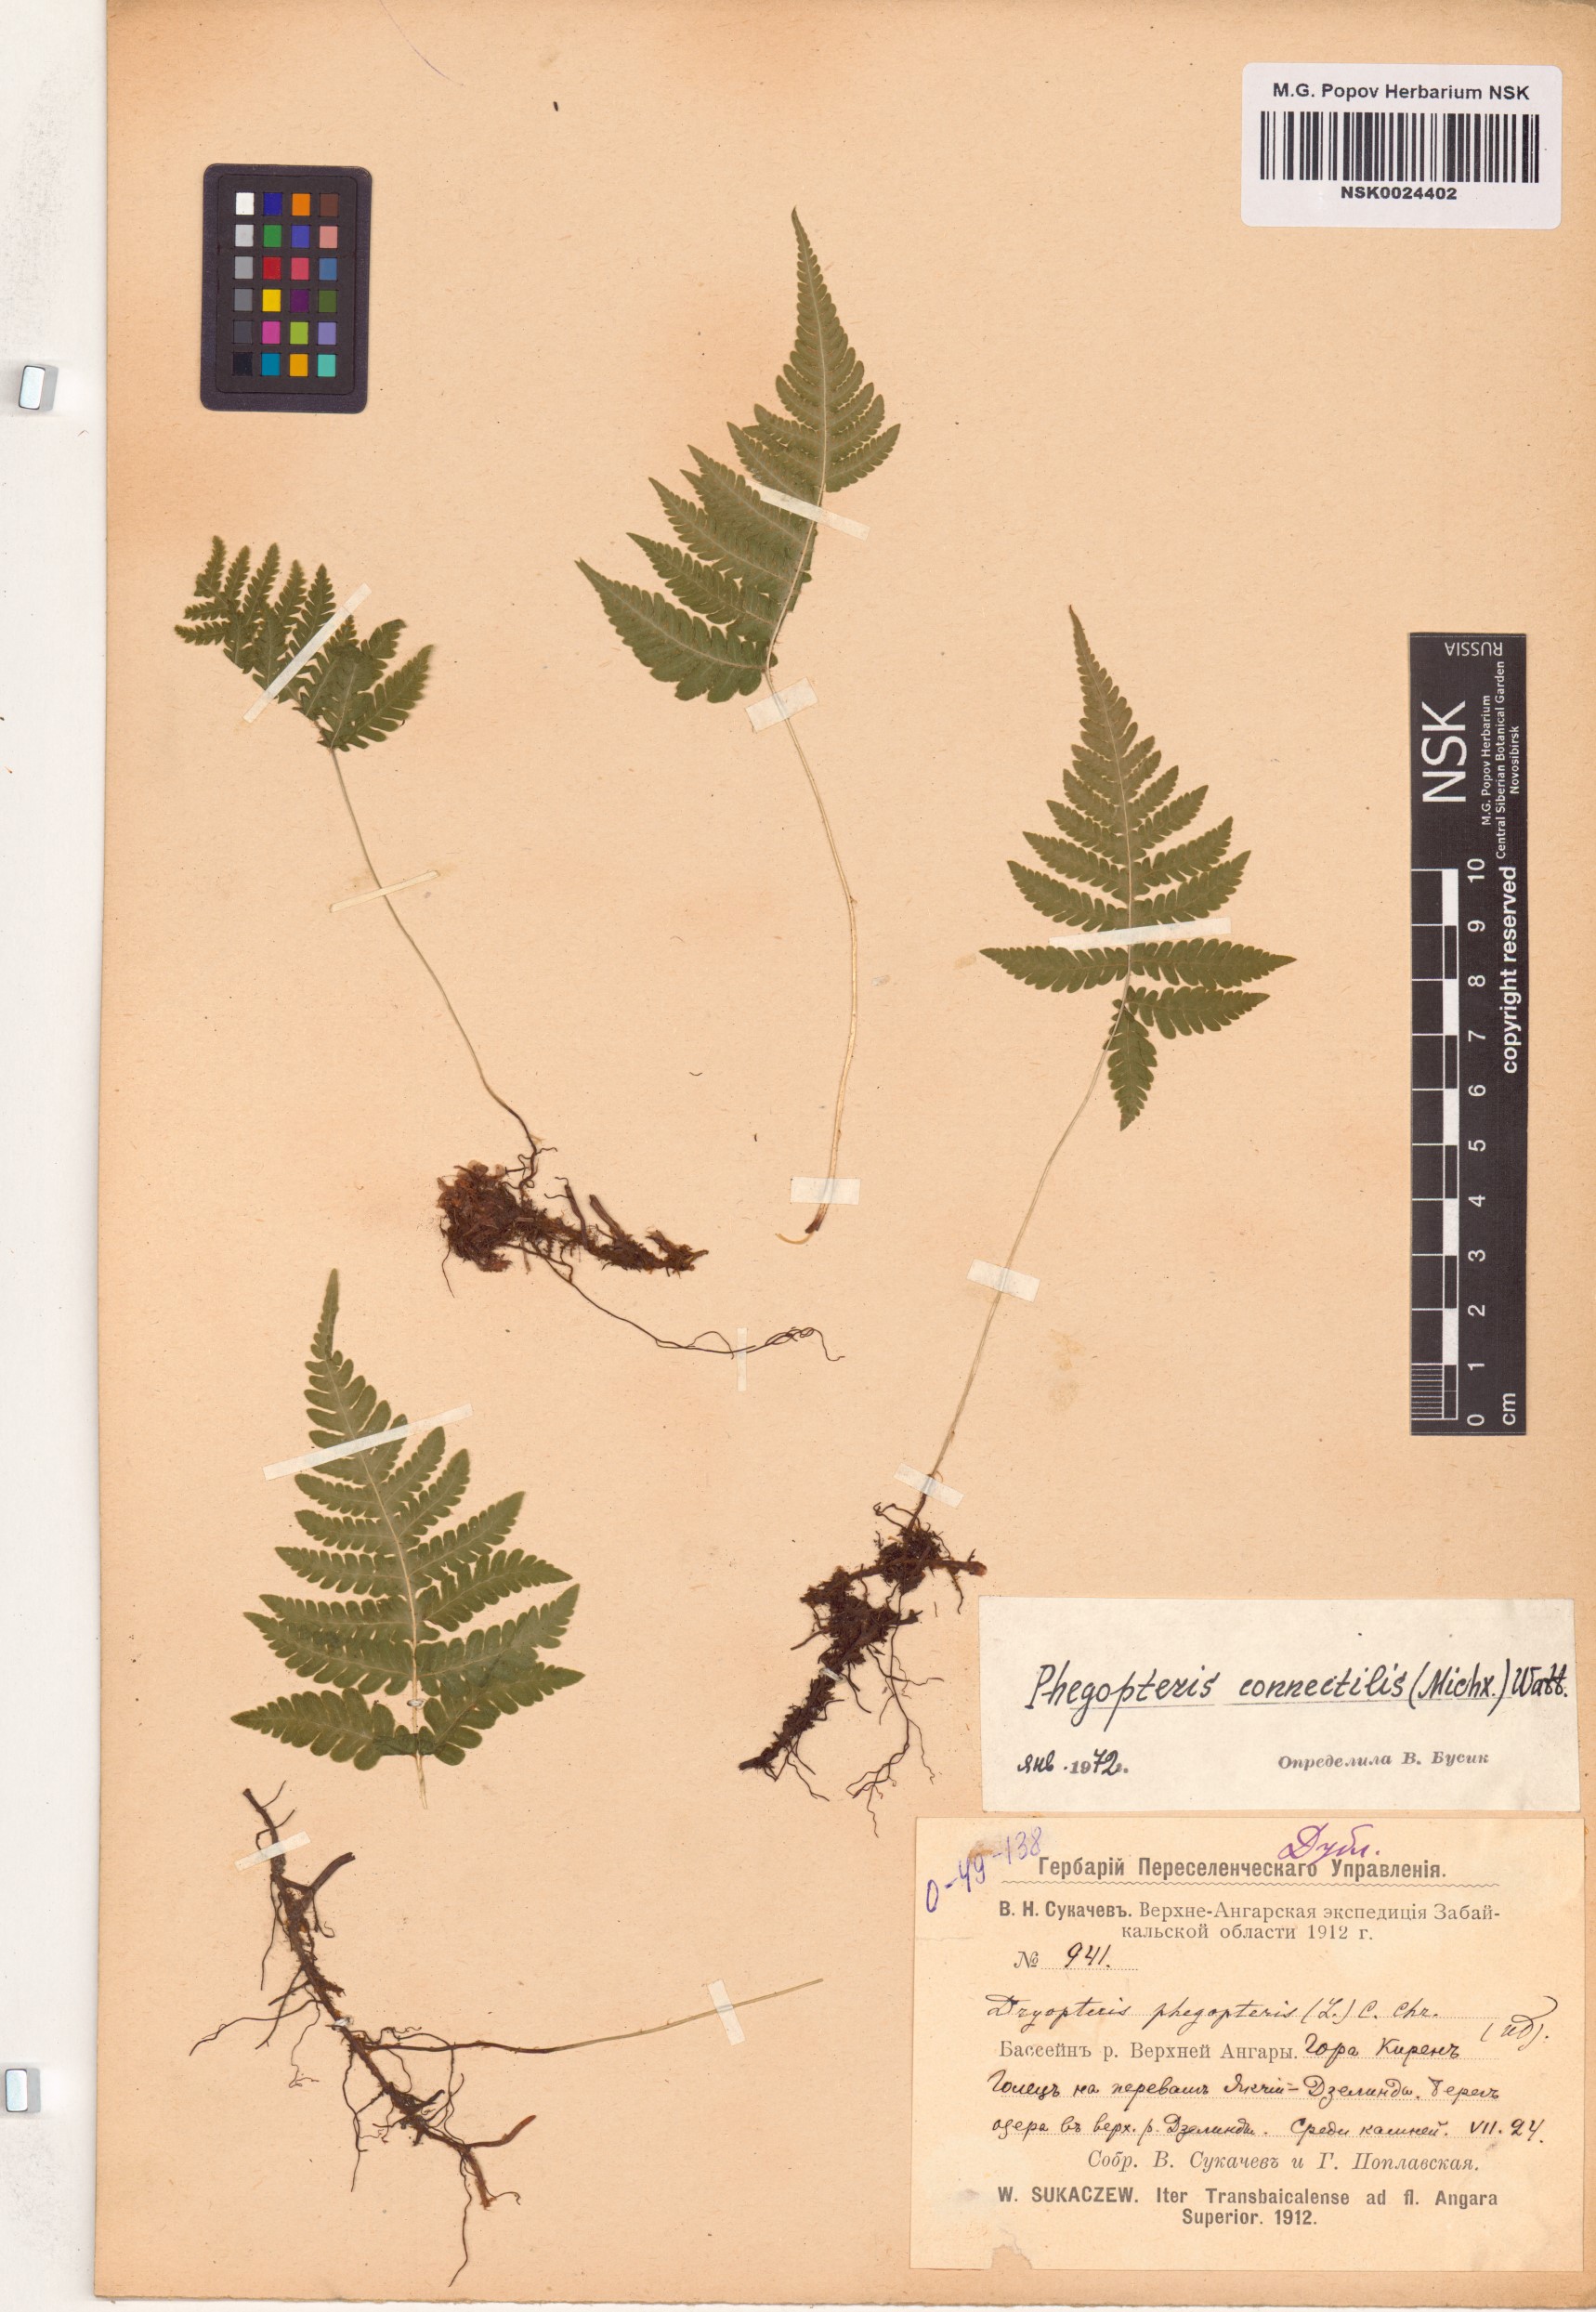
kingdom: Plantae
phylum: Tracheophyta
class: Polypodiopsida
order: Polypodiales
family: Thelypteridaceae
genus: Phegopteris
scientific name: Phegopteris connectilis
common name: Beech fern
